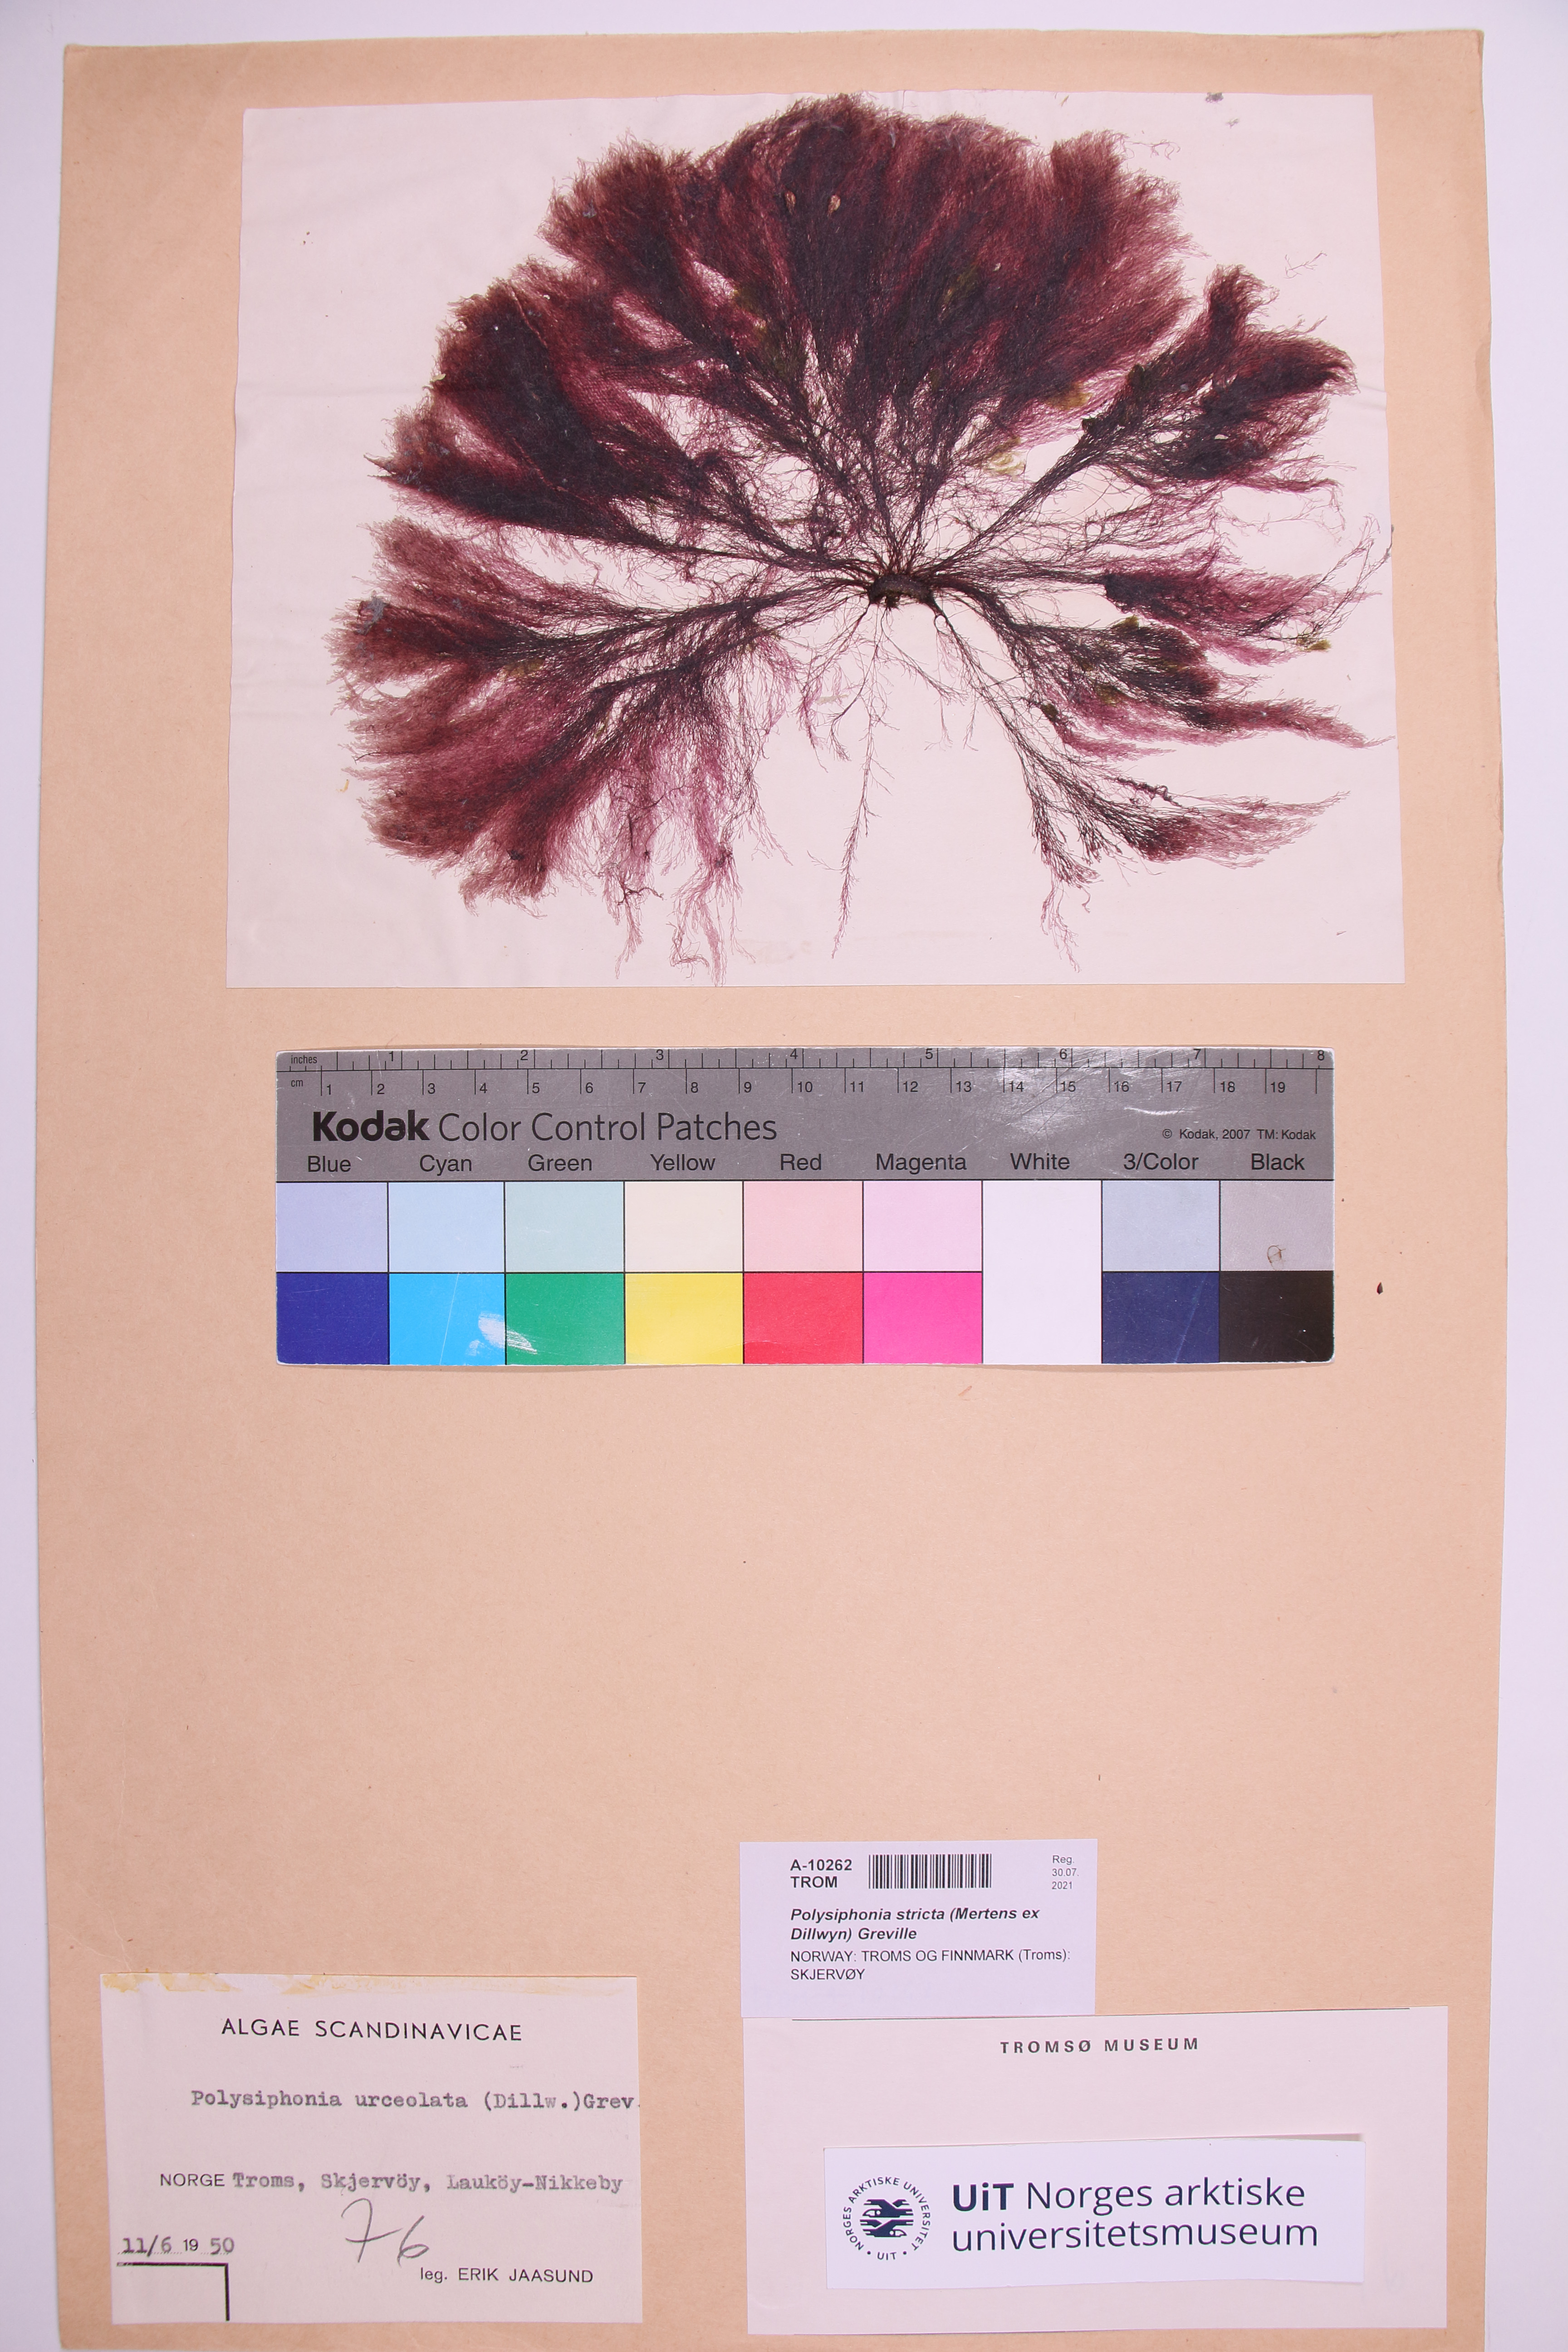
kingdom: Plantae
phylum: Rhodophyta
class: Florideophyceae
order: Ceramiales
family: Rhodomelaceae
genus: Polysiphonia
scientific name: Polysiphonia stricta
